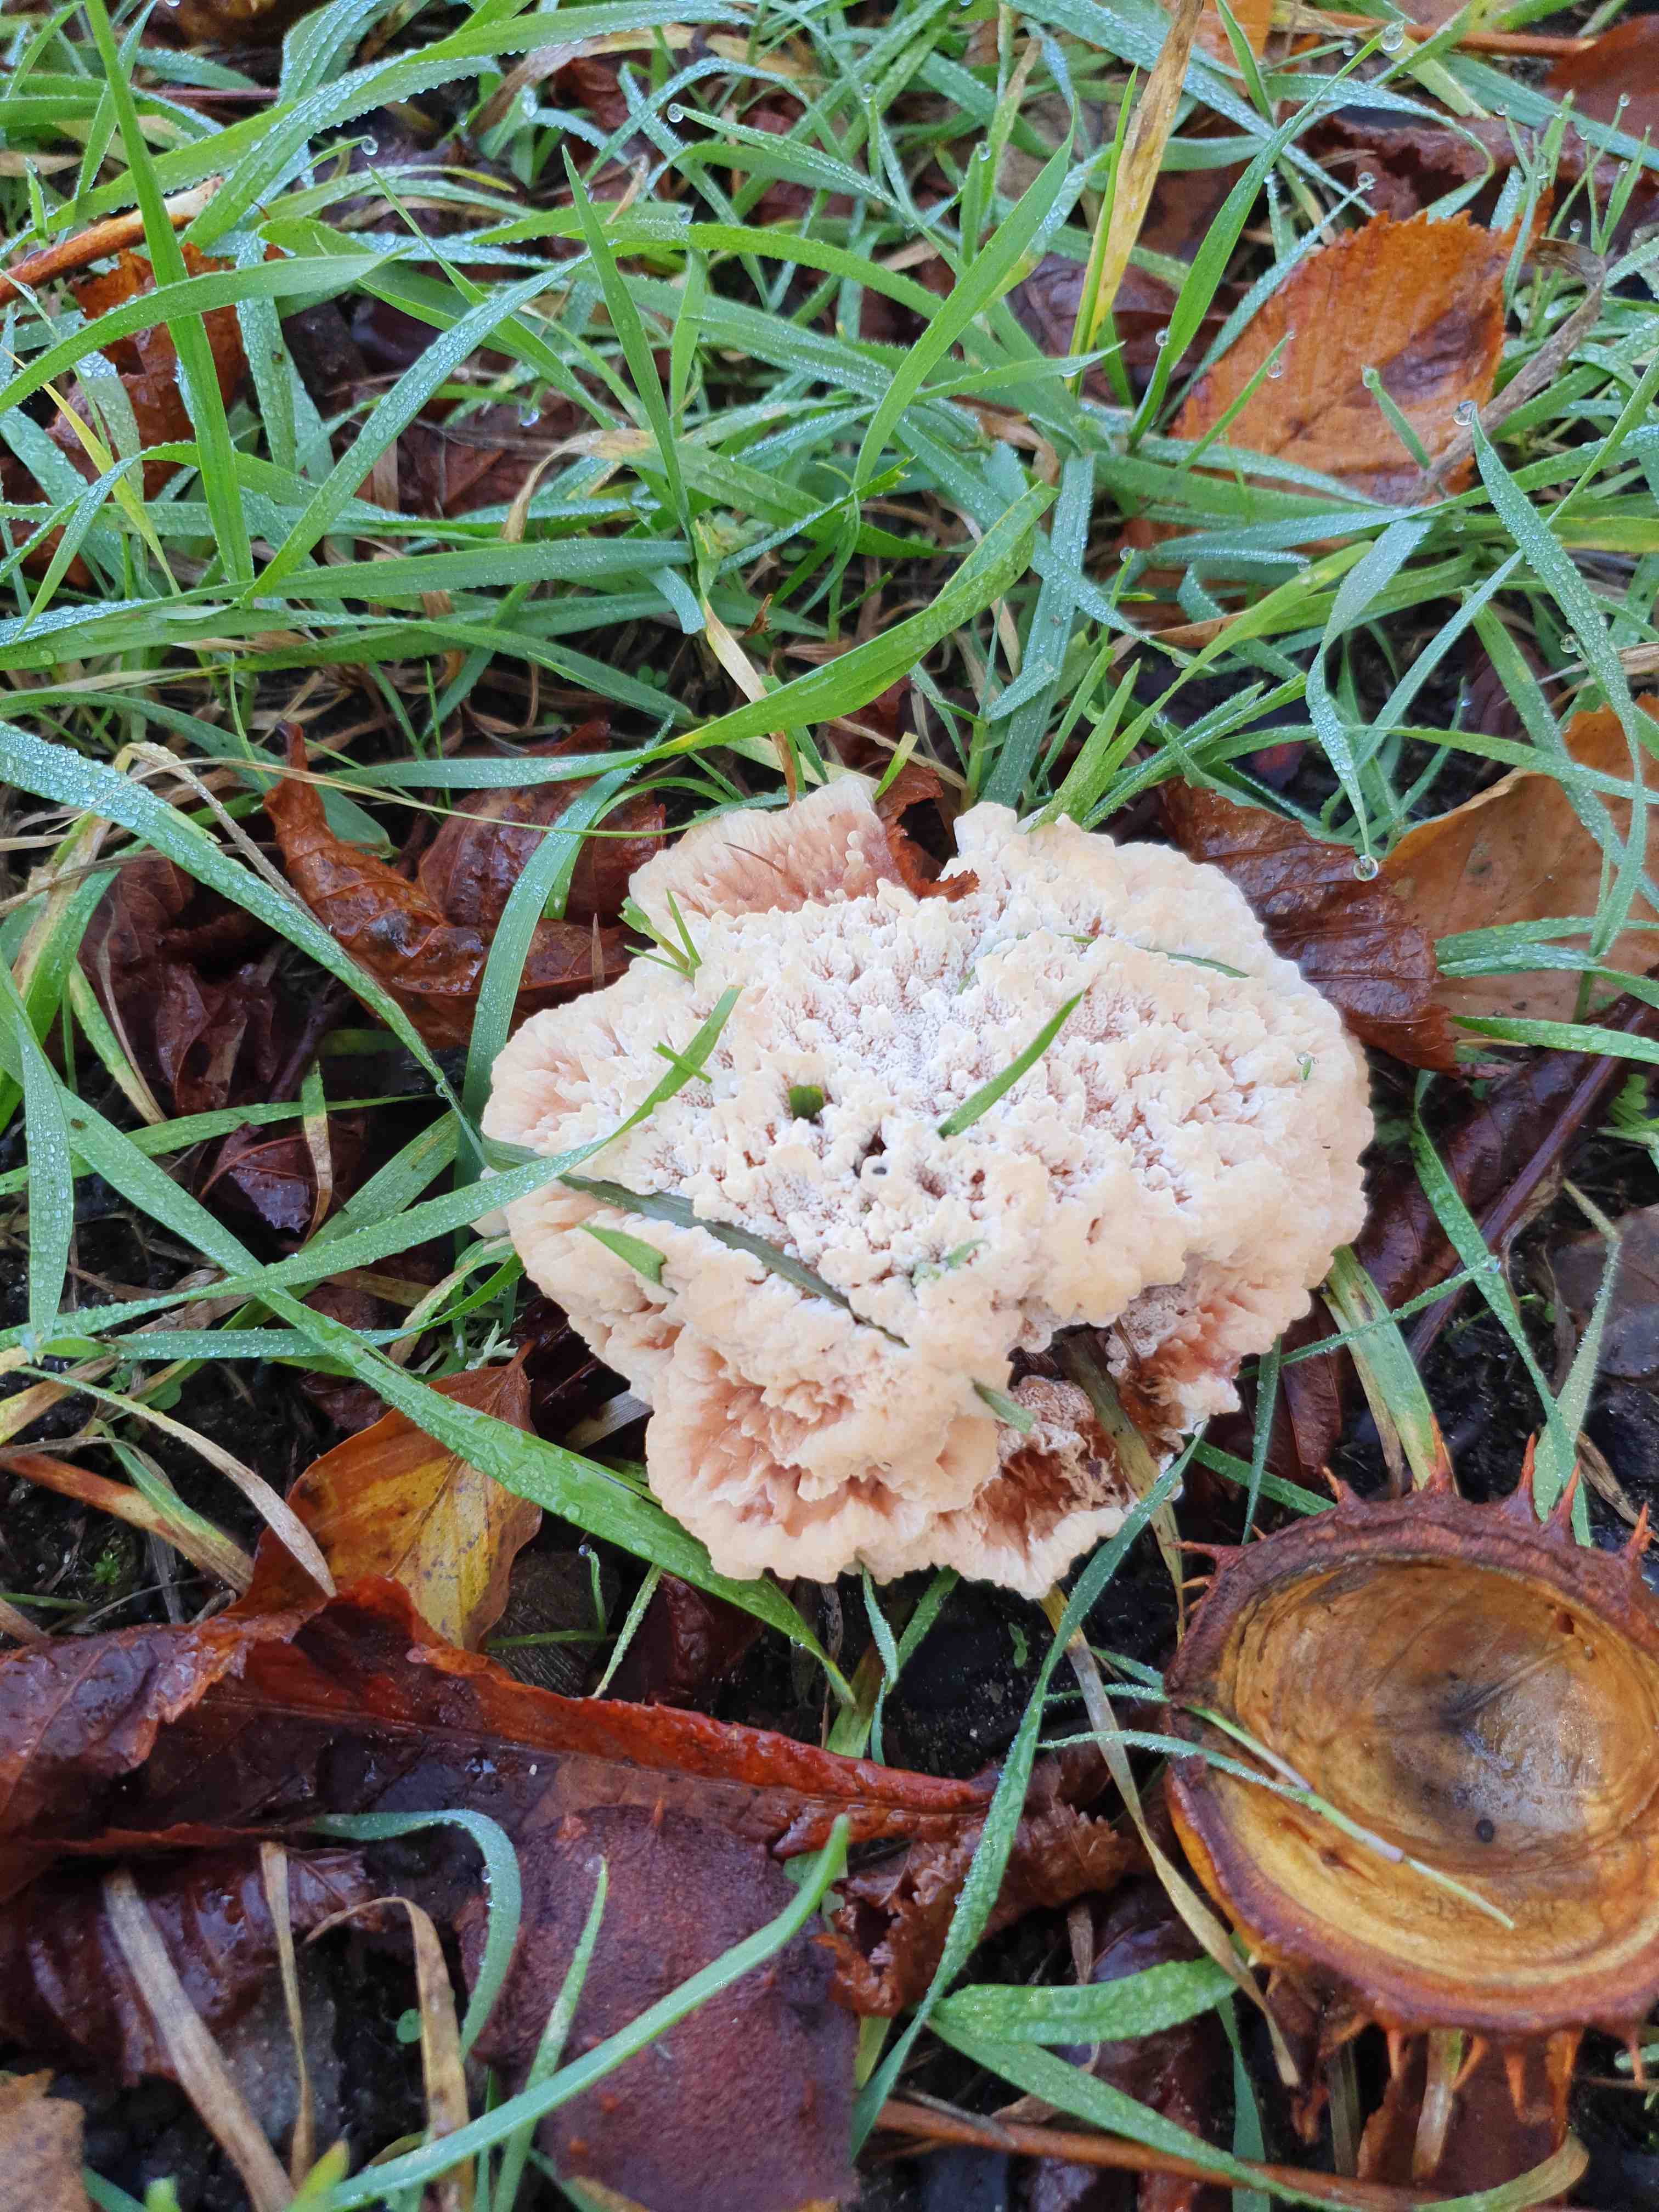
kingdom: Fungi
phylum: Basidiomycota
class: Agaricomycetes
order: Polyporales
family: Podoscyphaceae
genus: Abortiporus
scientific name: Abortiporus biennis
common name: rødmende pjalteporesvamp
